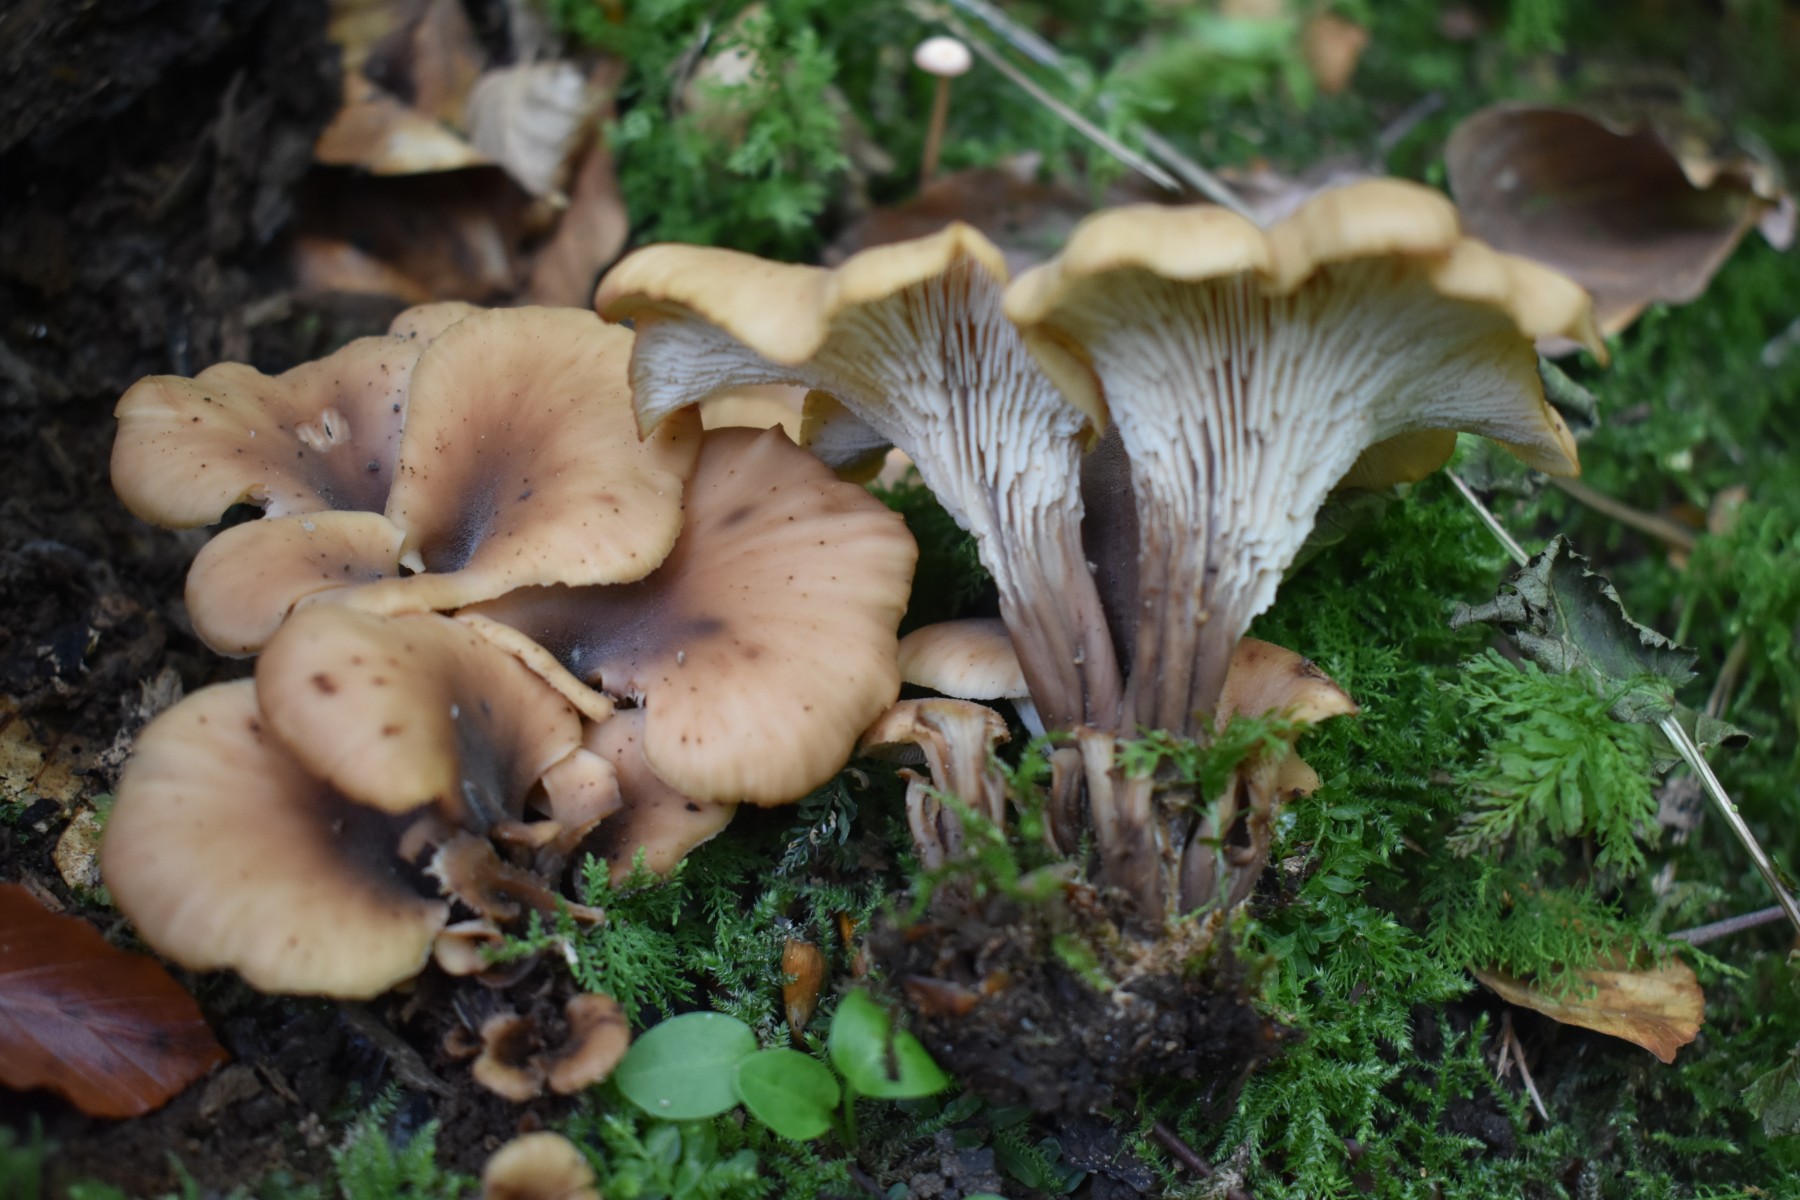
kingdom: Fungi
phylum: Basidiomycota
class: Agaricomycetes
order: Russulales
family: Auriscalpiaceae
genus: Lentinellus
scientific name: Lentinellus cochleatus
